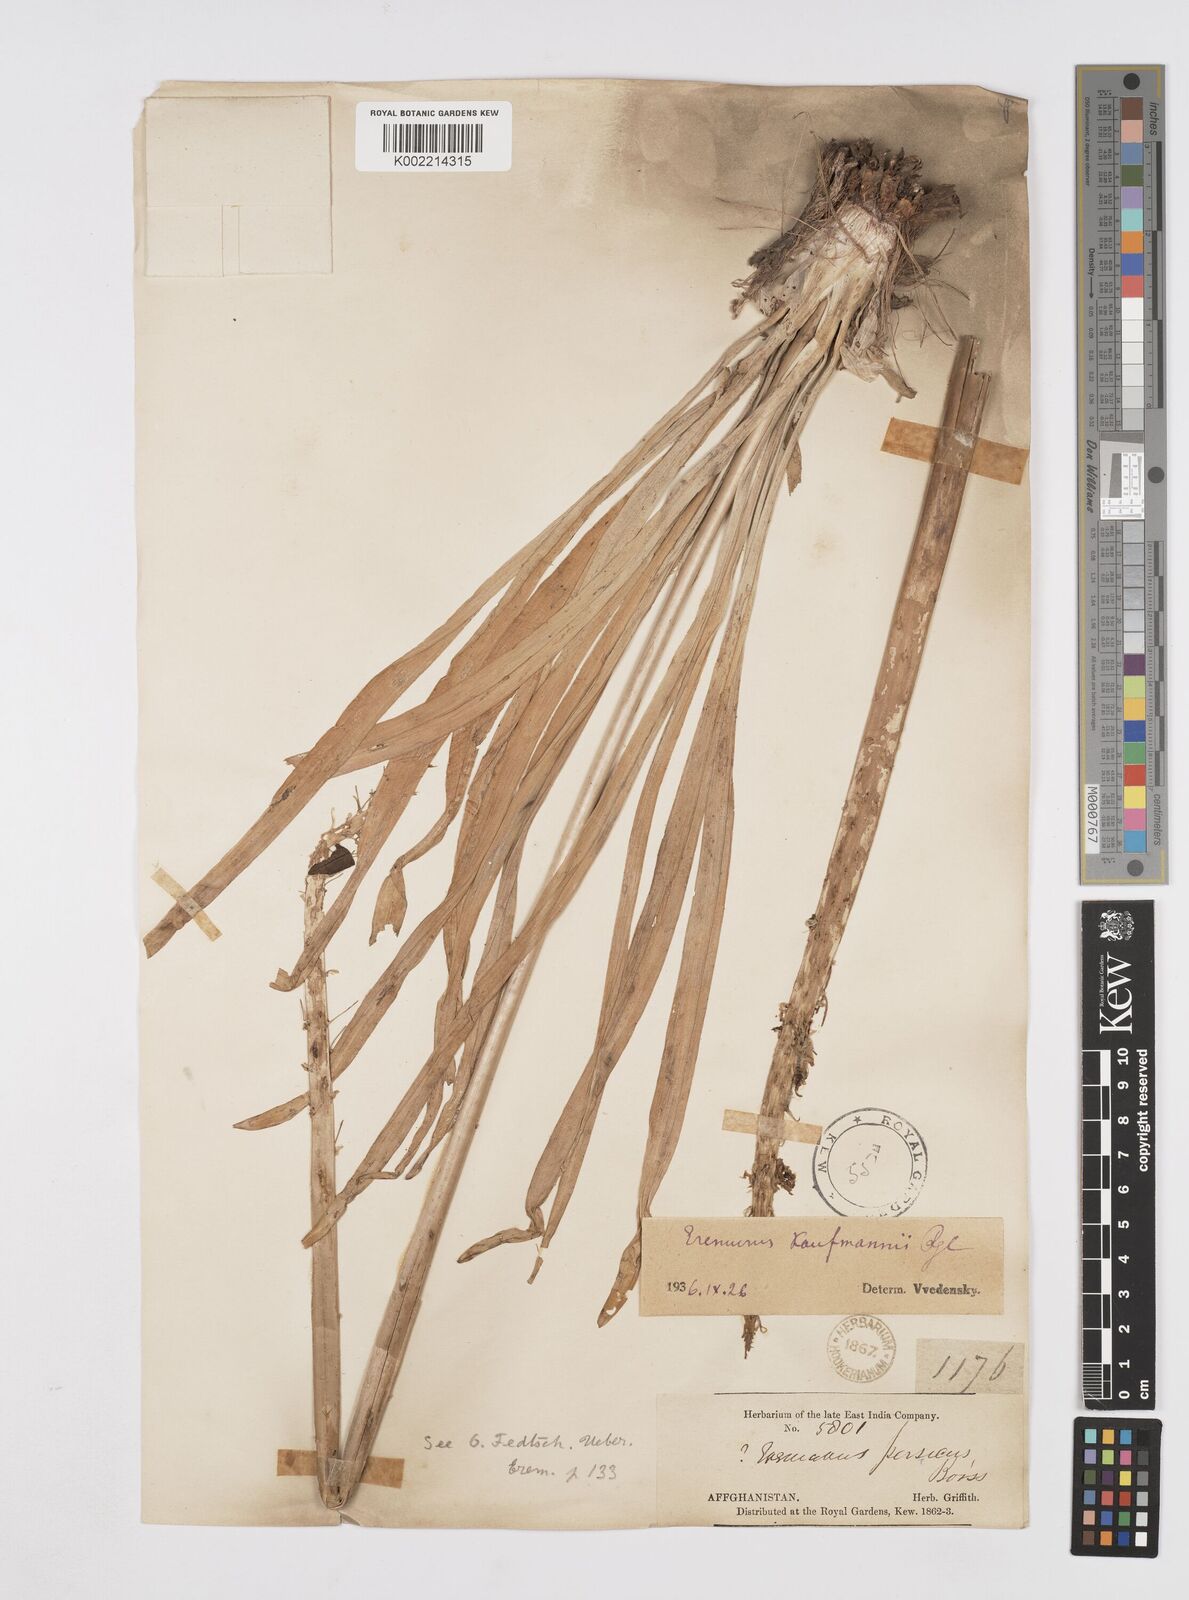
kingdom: Plantae
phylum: Tracheophyta
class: Liliopsida
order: Asparagales
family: Asphodelaceae
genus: Eremurus
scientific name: Eremurus kaufmannii
